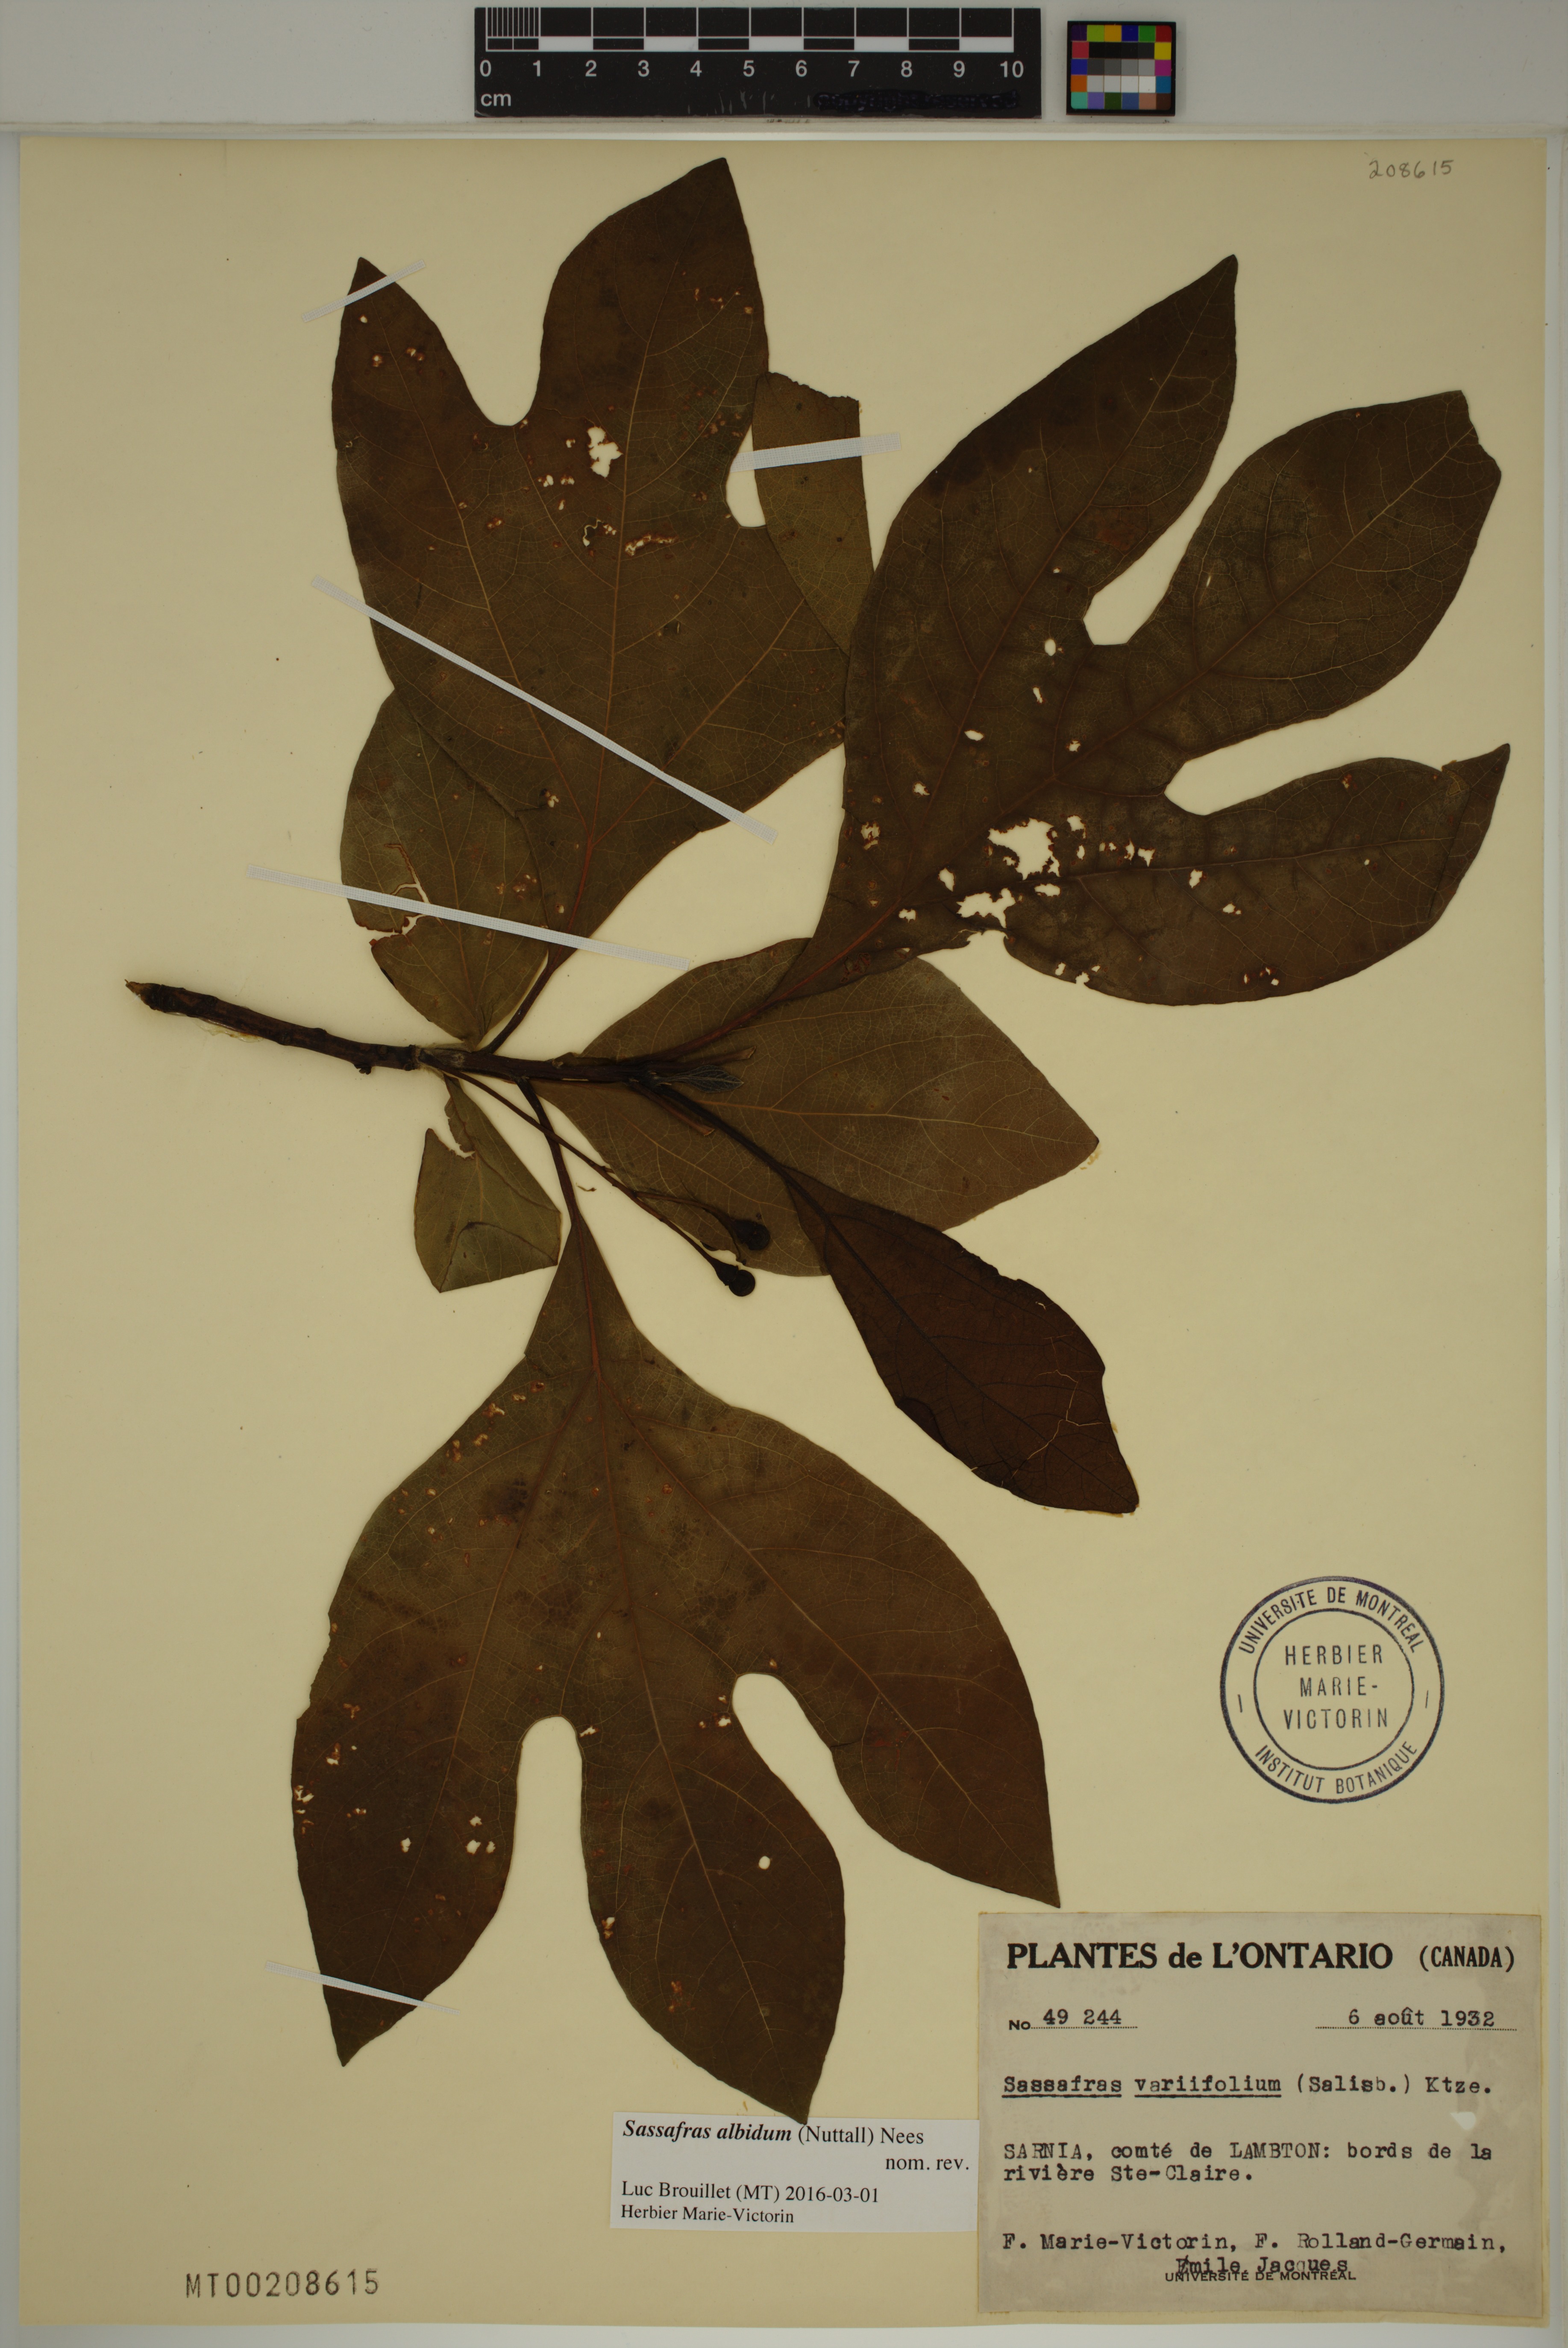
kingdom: Plantae
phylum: Tracheophyta
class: Magnoliopsida
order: Laurales
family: Lauraceae
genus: Sassafras
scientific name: Sassafras albidum
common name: Sassafras
